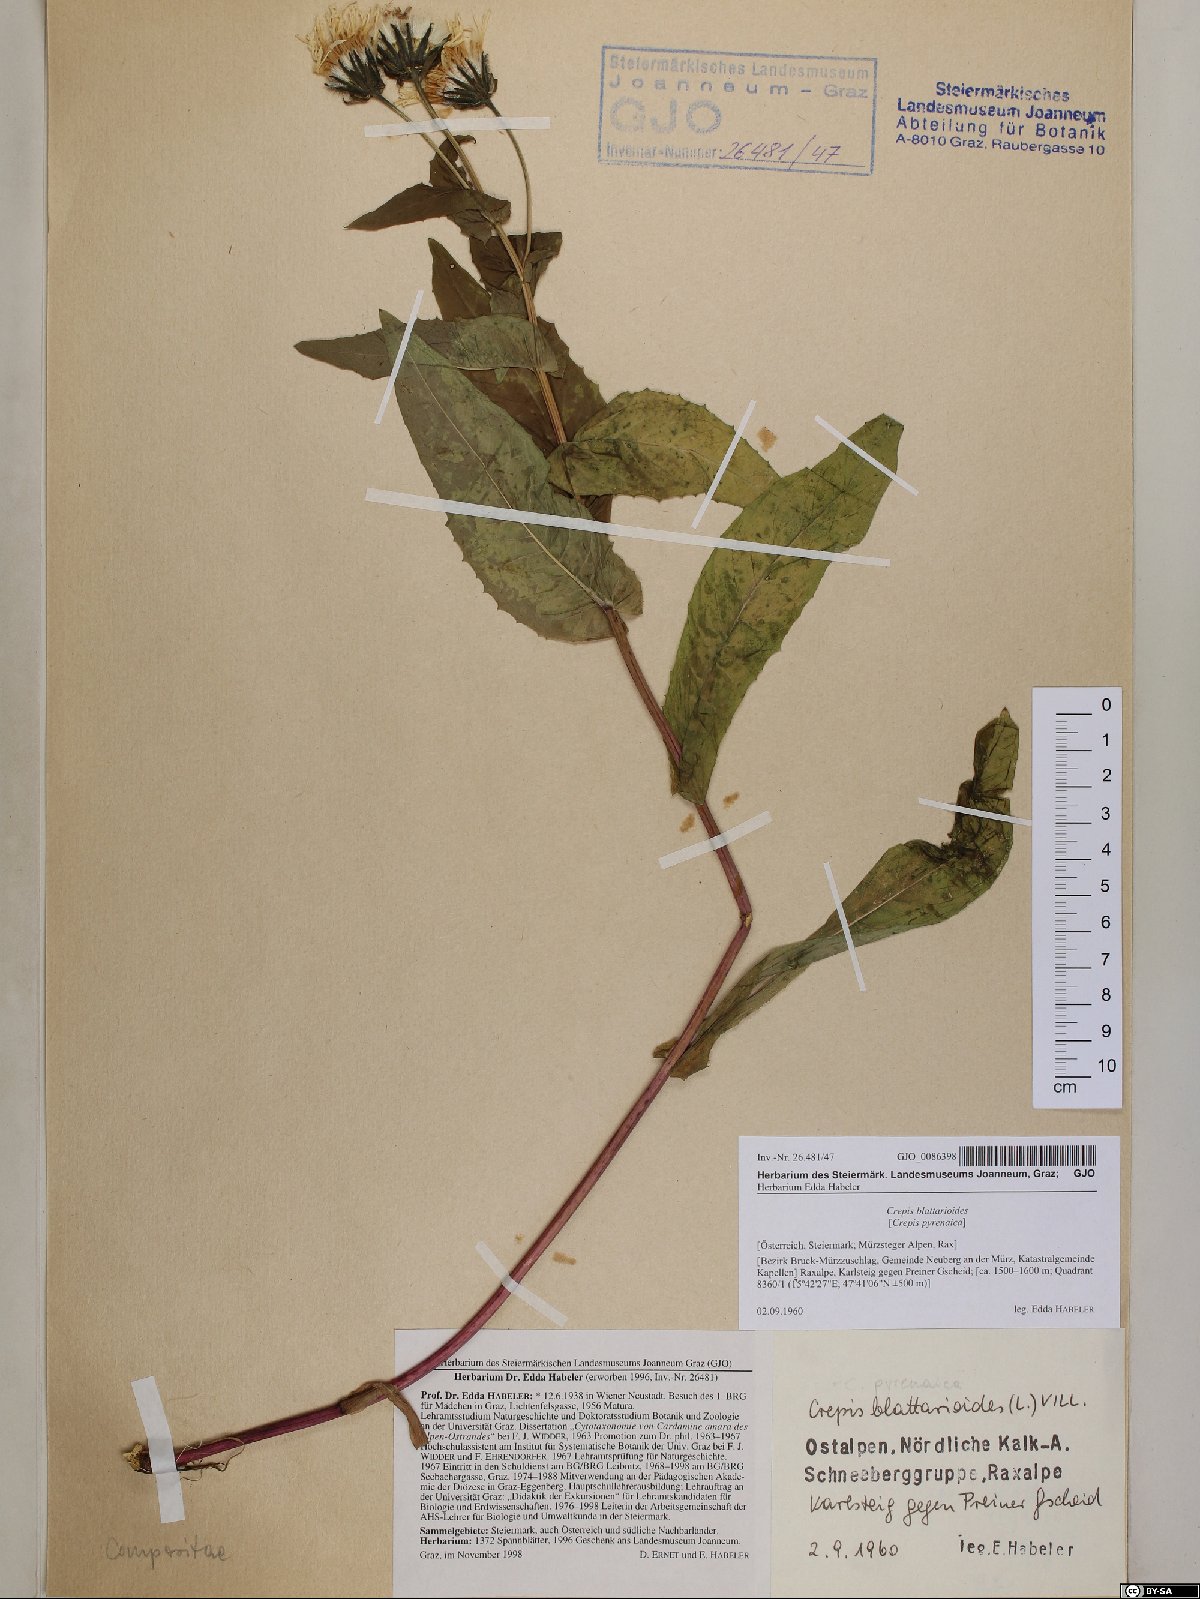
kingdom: Plantae
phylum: Tracheophyta
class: Magnoliopsida
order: Asterales
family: Asteraceae
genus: Crepis
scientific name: Crepis blattarioides
